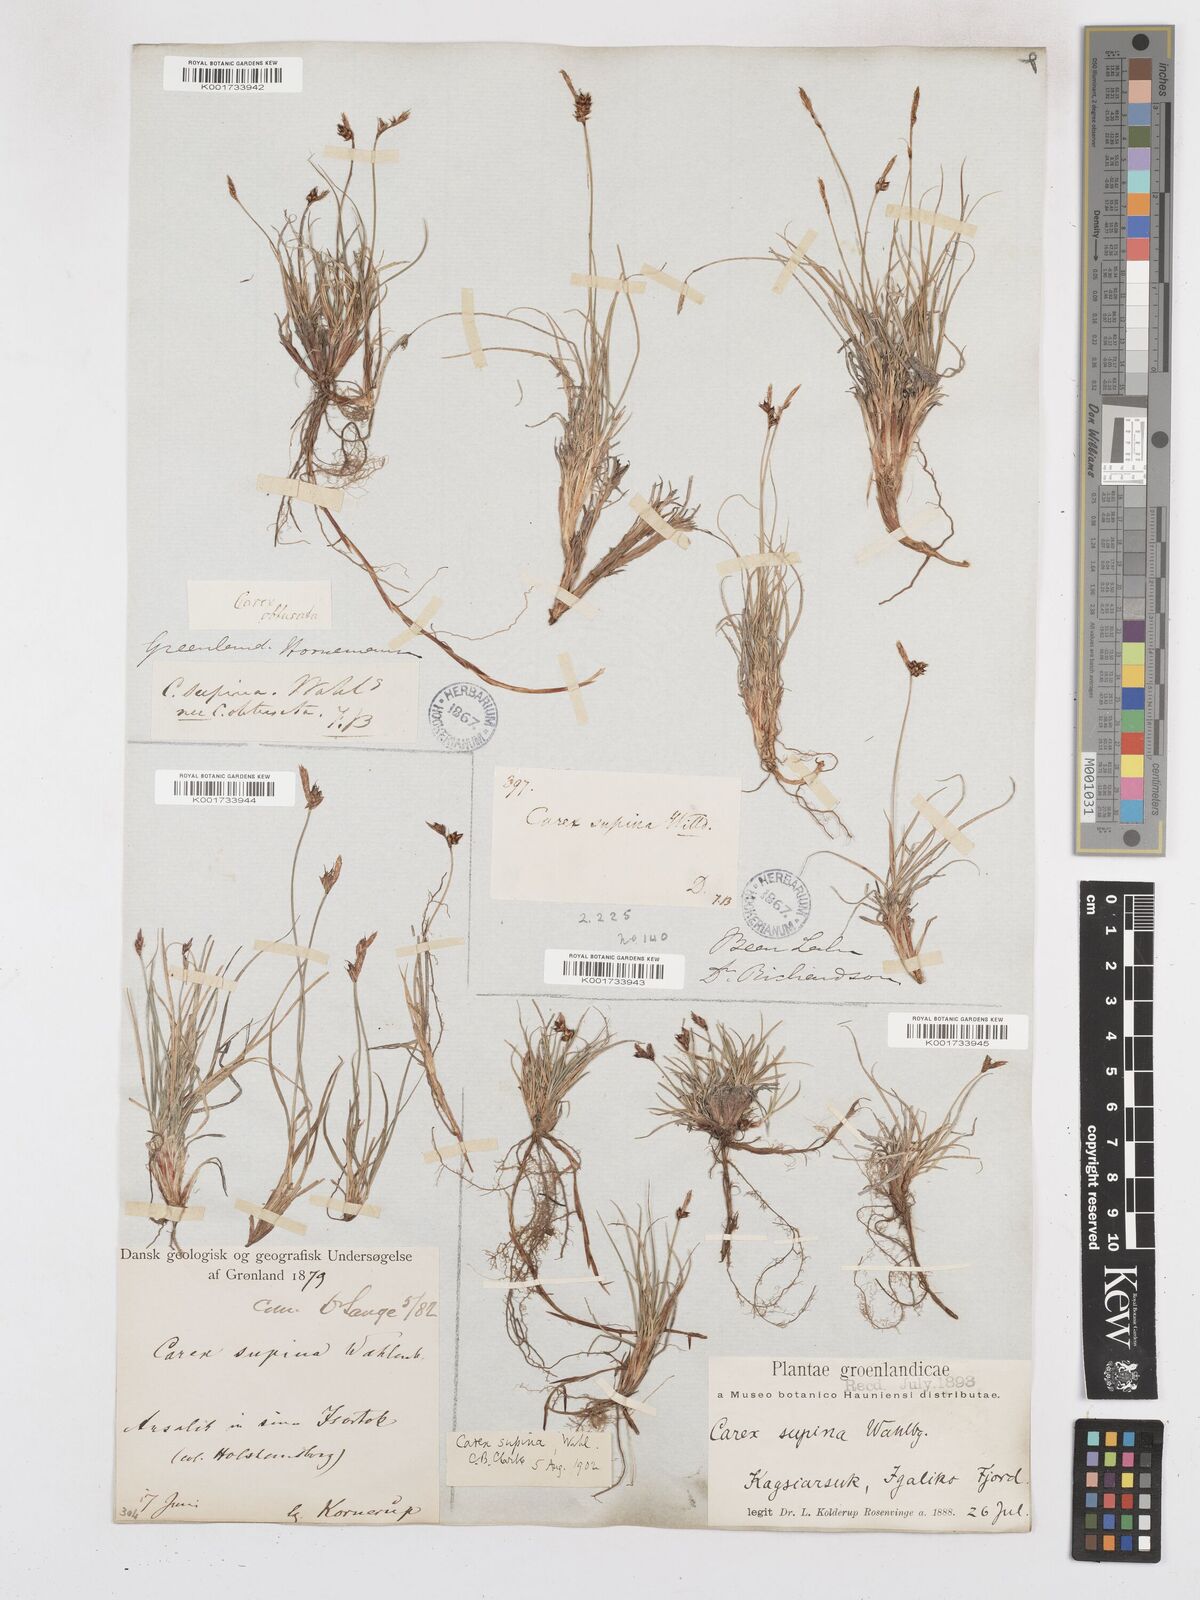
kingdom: Plantae
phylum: Tracheophyta
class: Liliopsida
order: Poales
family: Cyperaceae
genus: Carex
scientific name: Carex supina
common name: Lying-back sedge
